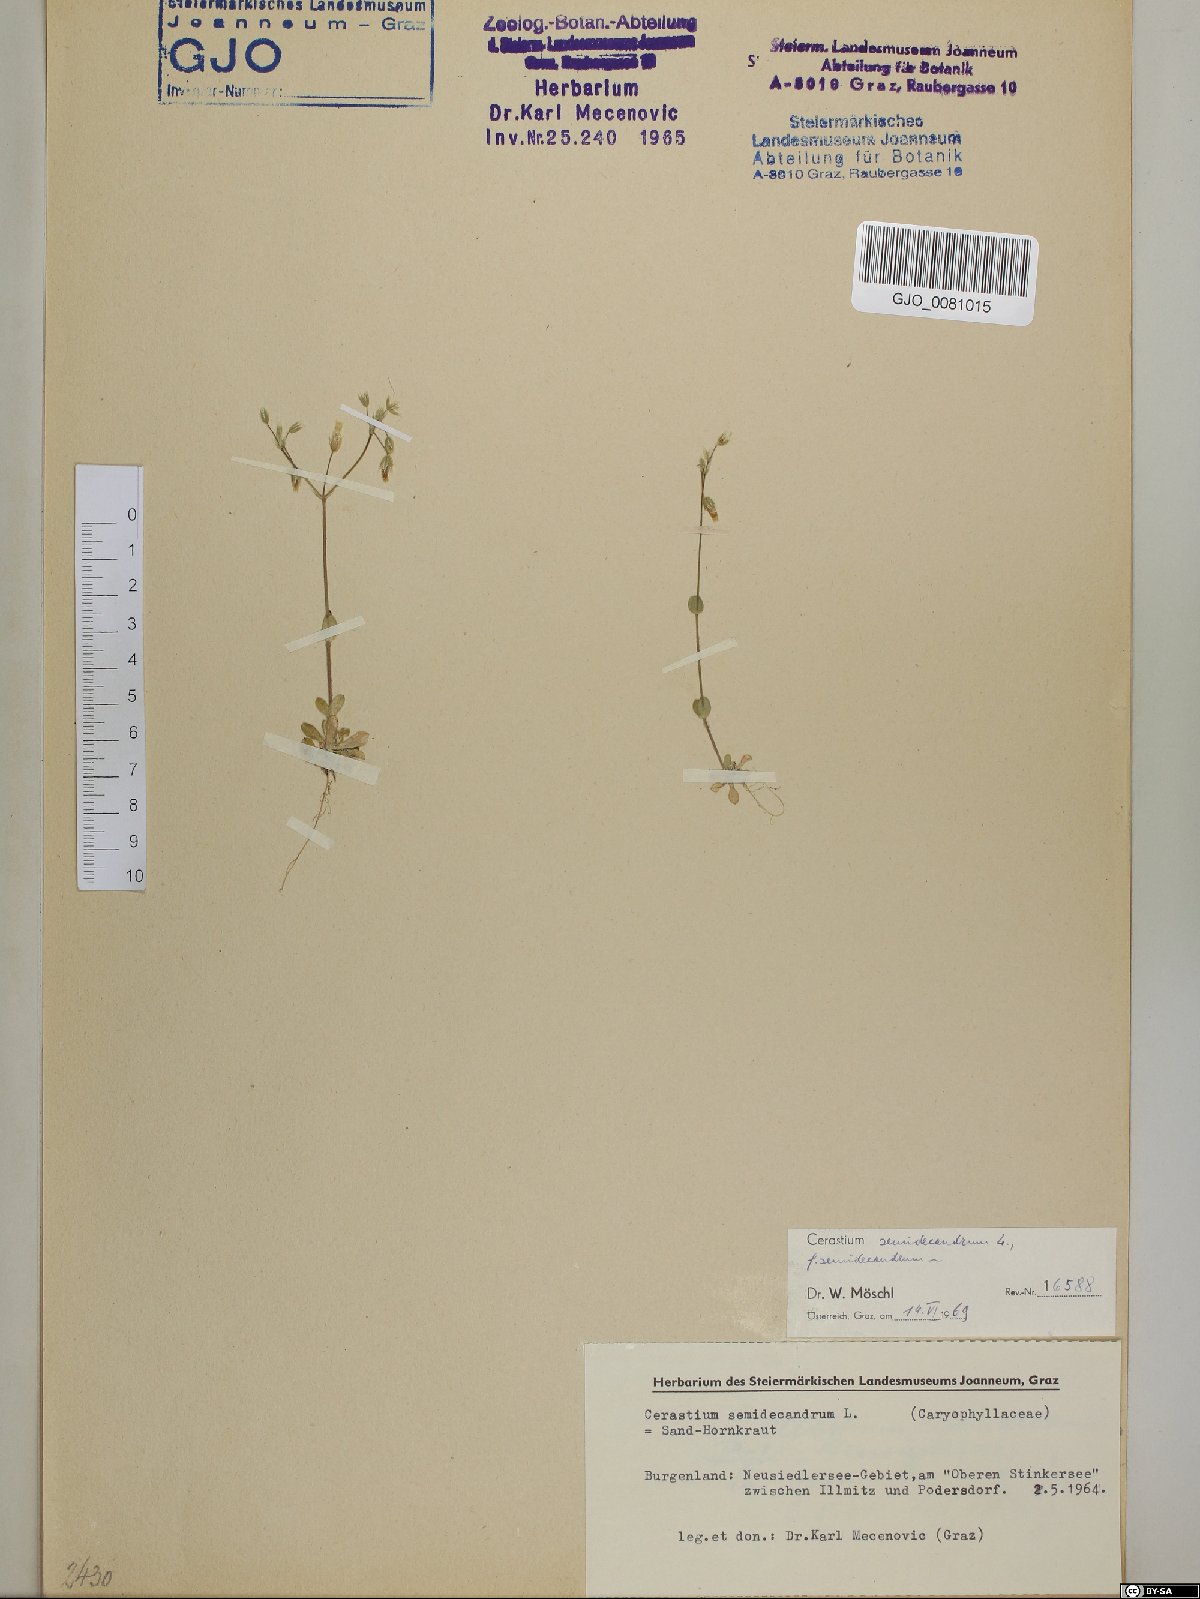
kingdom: Plantae
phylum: Tracheophyta
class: Magnoliopsida
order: Caryophyllales
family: Caryophyllaceae
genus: Cerastium
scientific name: Cerastium semidecandrum
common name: Little mouse-ear
